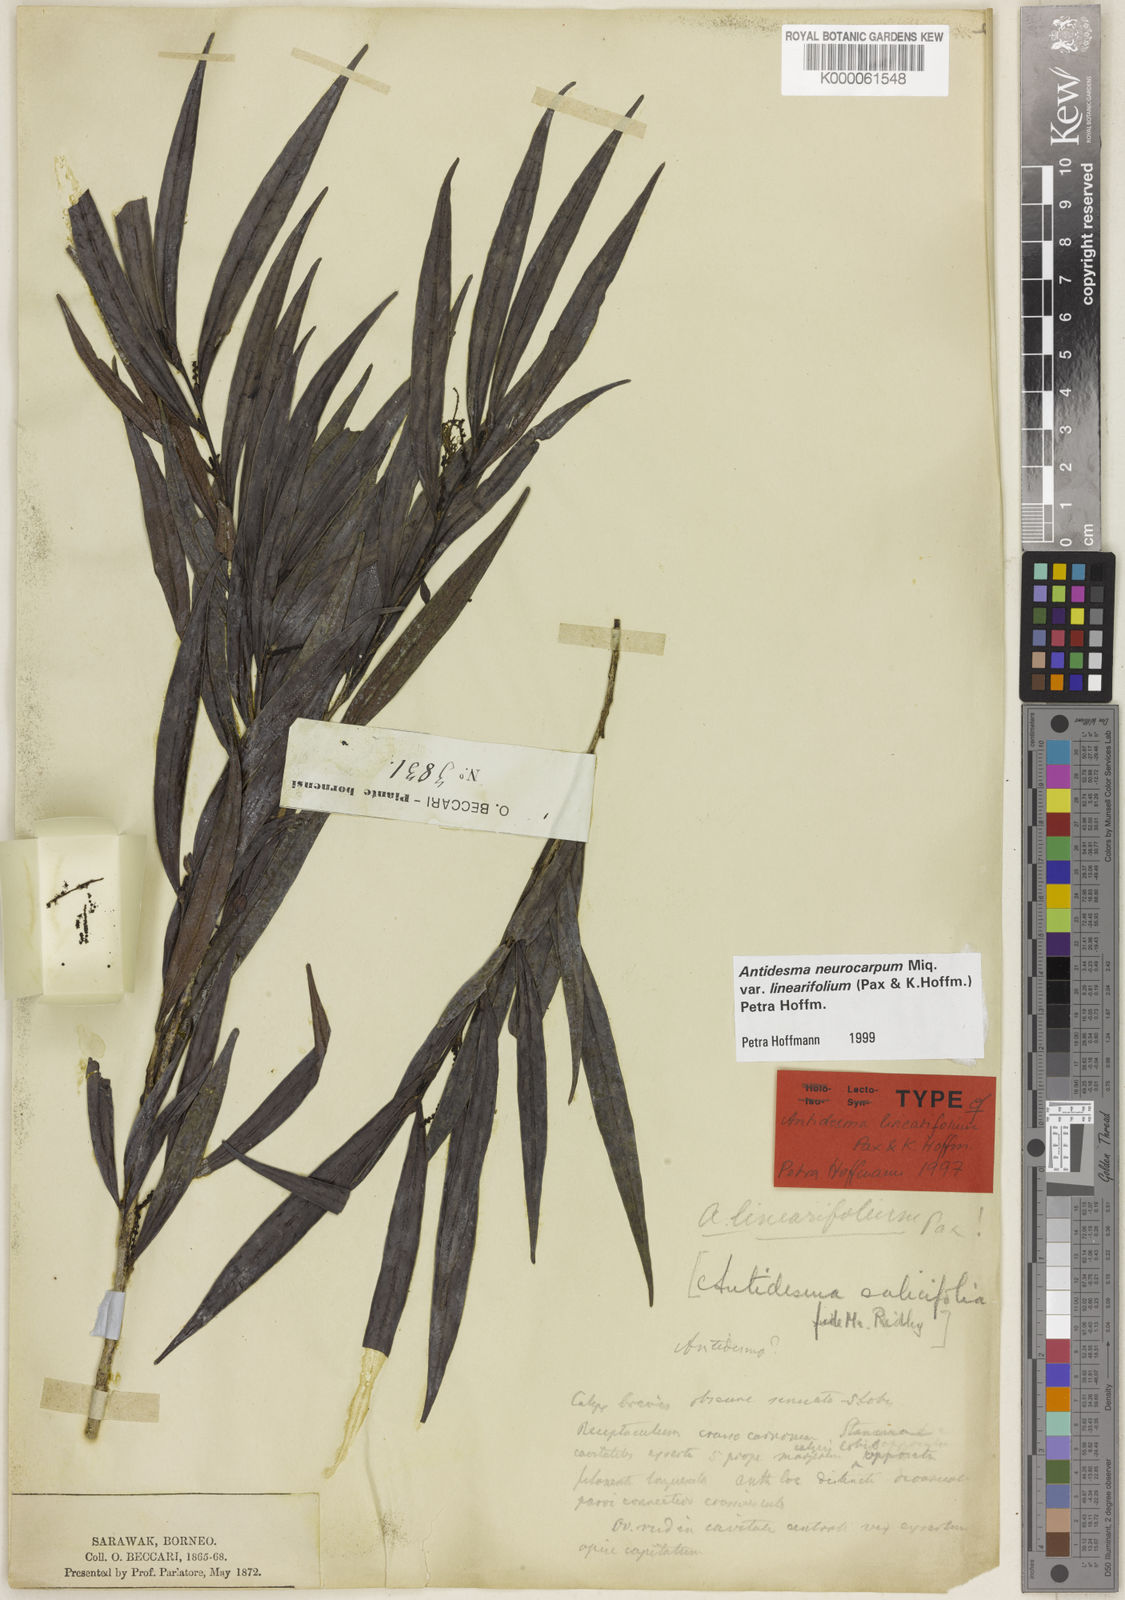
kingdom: Plantae
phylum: Tracheophyta
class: Magnoliopsida
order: Malpighiales
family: Phyllanthaceae
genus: Antidesma
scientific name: Antidesma neurocarpum
